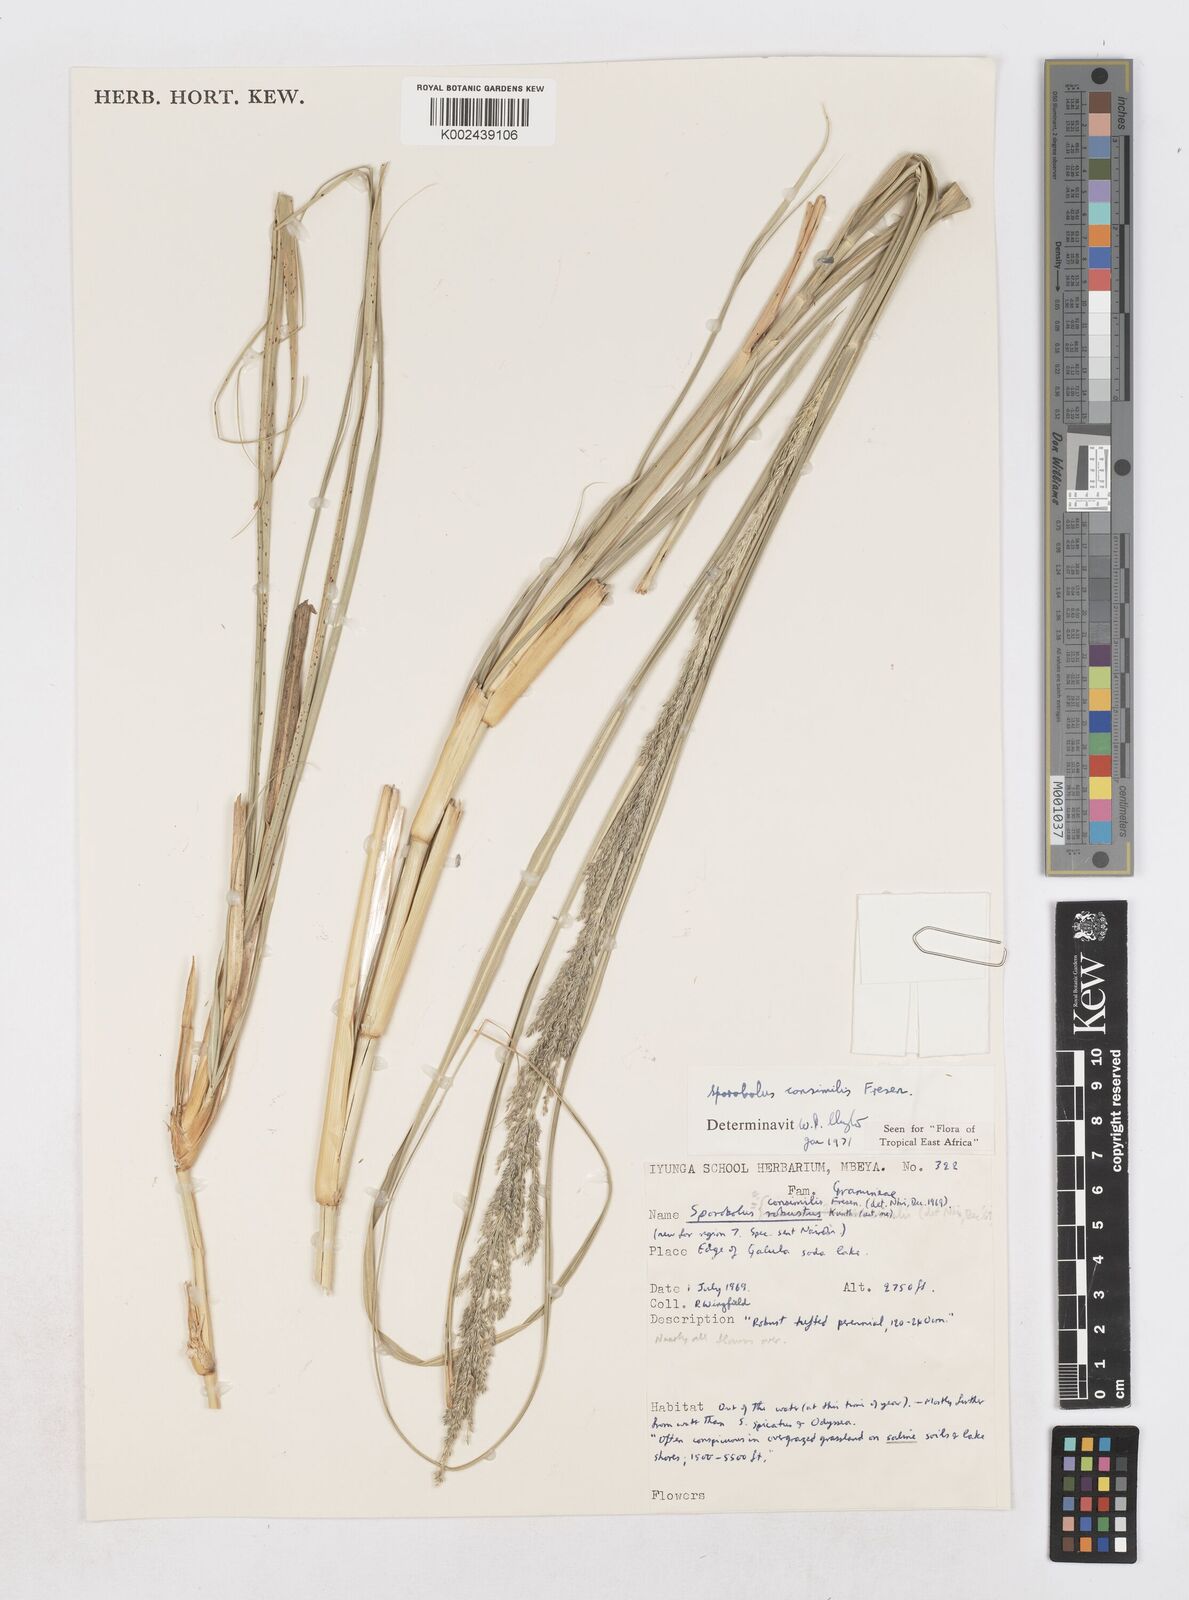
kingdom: Plantae
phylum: Tracheophyta
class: Liliopsida
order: Poales
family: Poaceae
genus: Sporobolus
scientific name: Sporobolus consimilis
